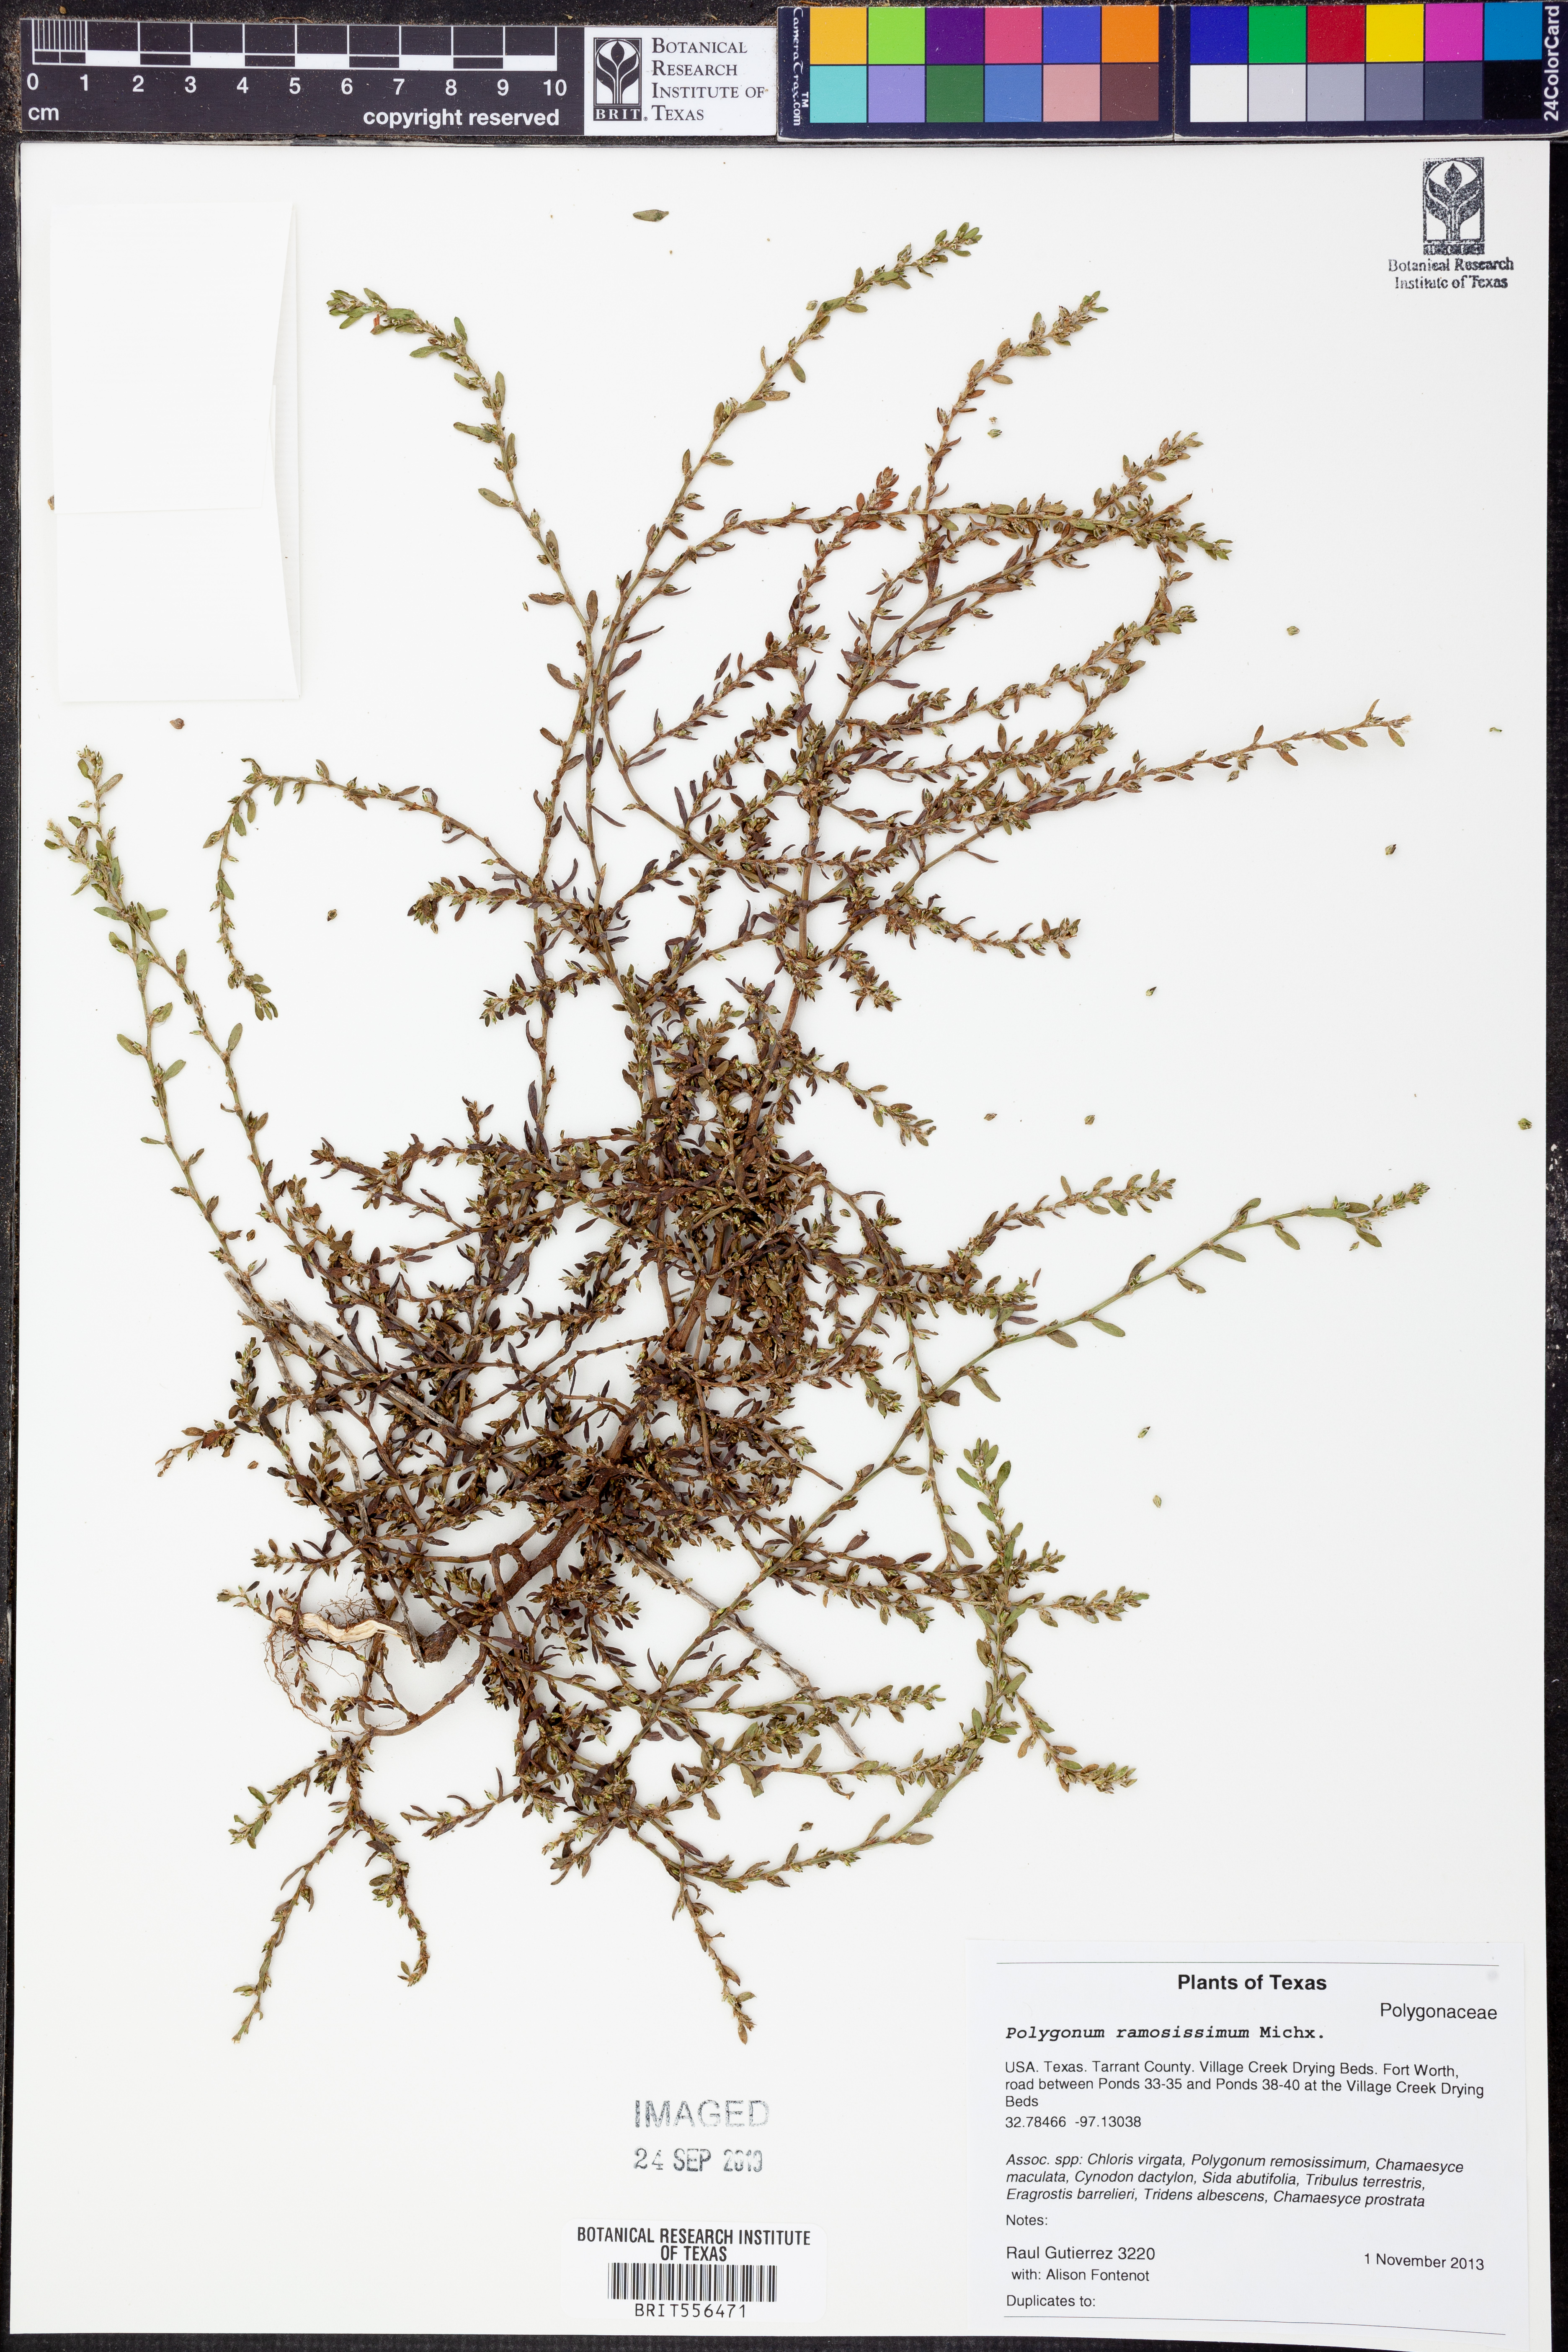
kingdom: Plantae
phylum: Tracheophyta
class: Magnoliopsida
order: Caryophyllales
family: Polygonaceae
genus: Polygonum
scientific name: Polygonum ramosissimum
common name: Bushy knotweed
